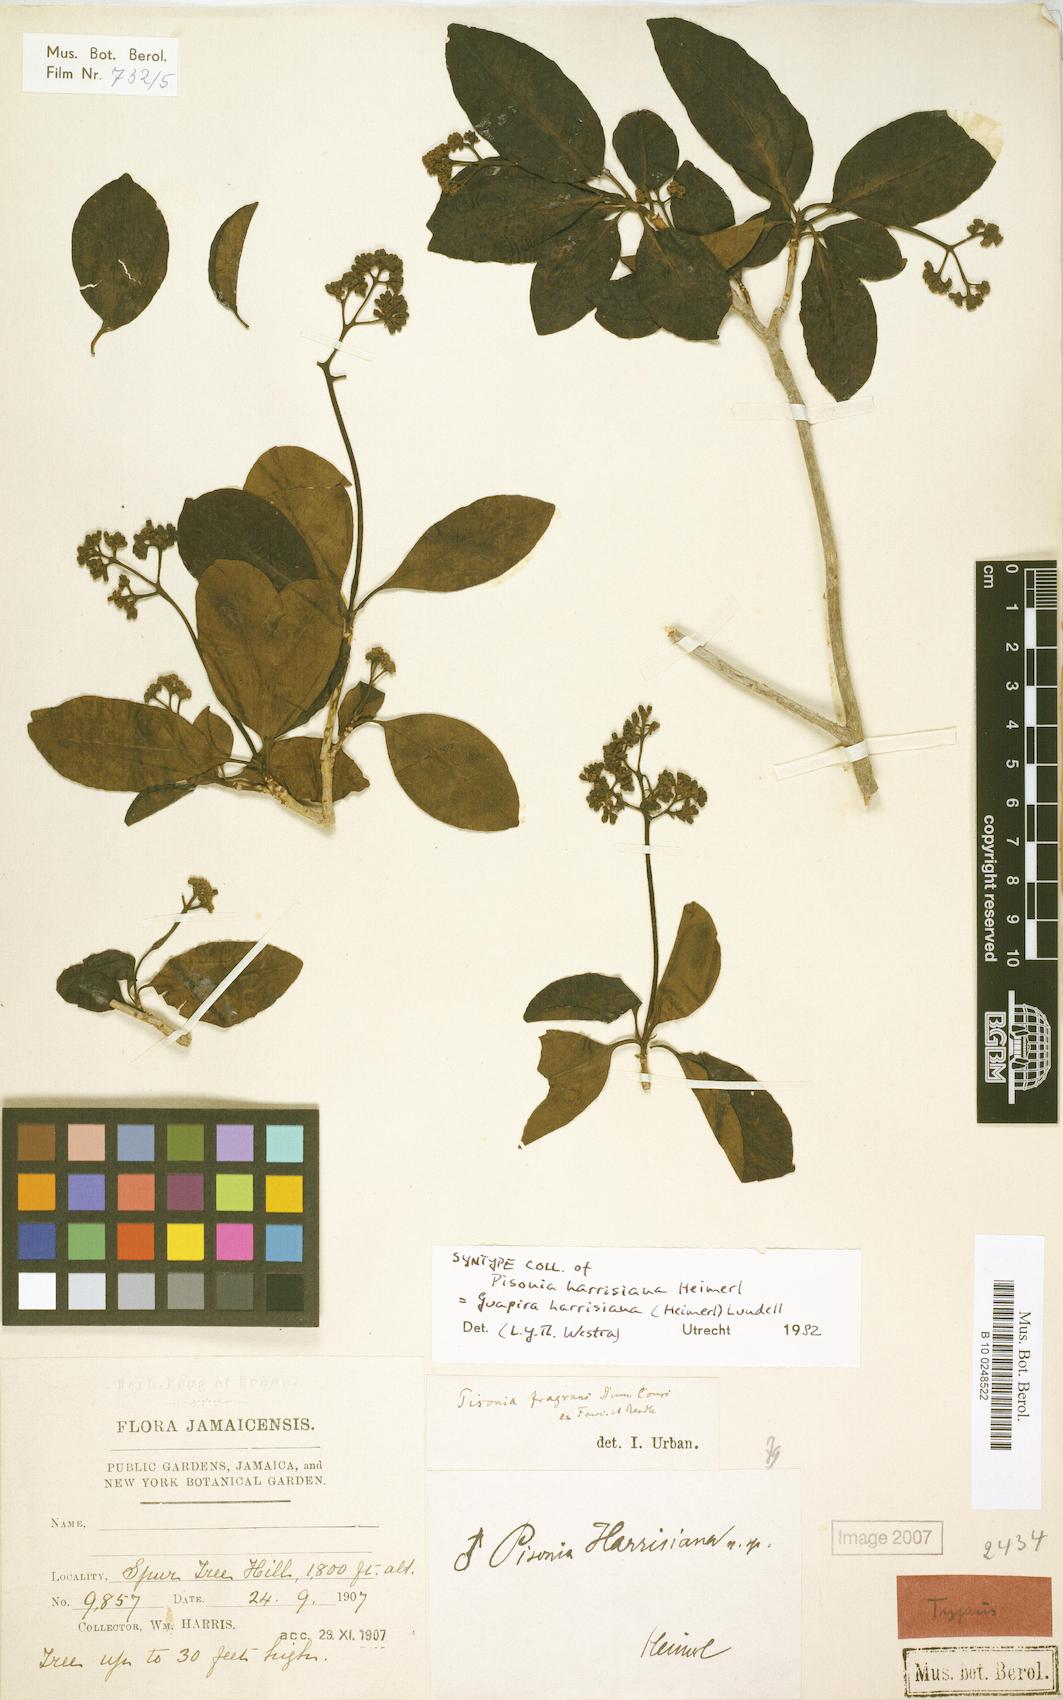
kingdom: Plantae
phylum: Tracheophyta
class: Magnoliopsida
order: Caryophyllales
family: Nyctaginaceae
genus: Guapira
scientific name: Guapira fragrans
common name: Black loblolly tree
